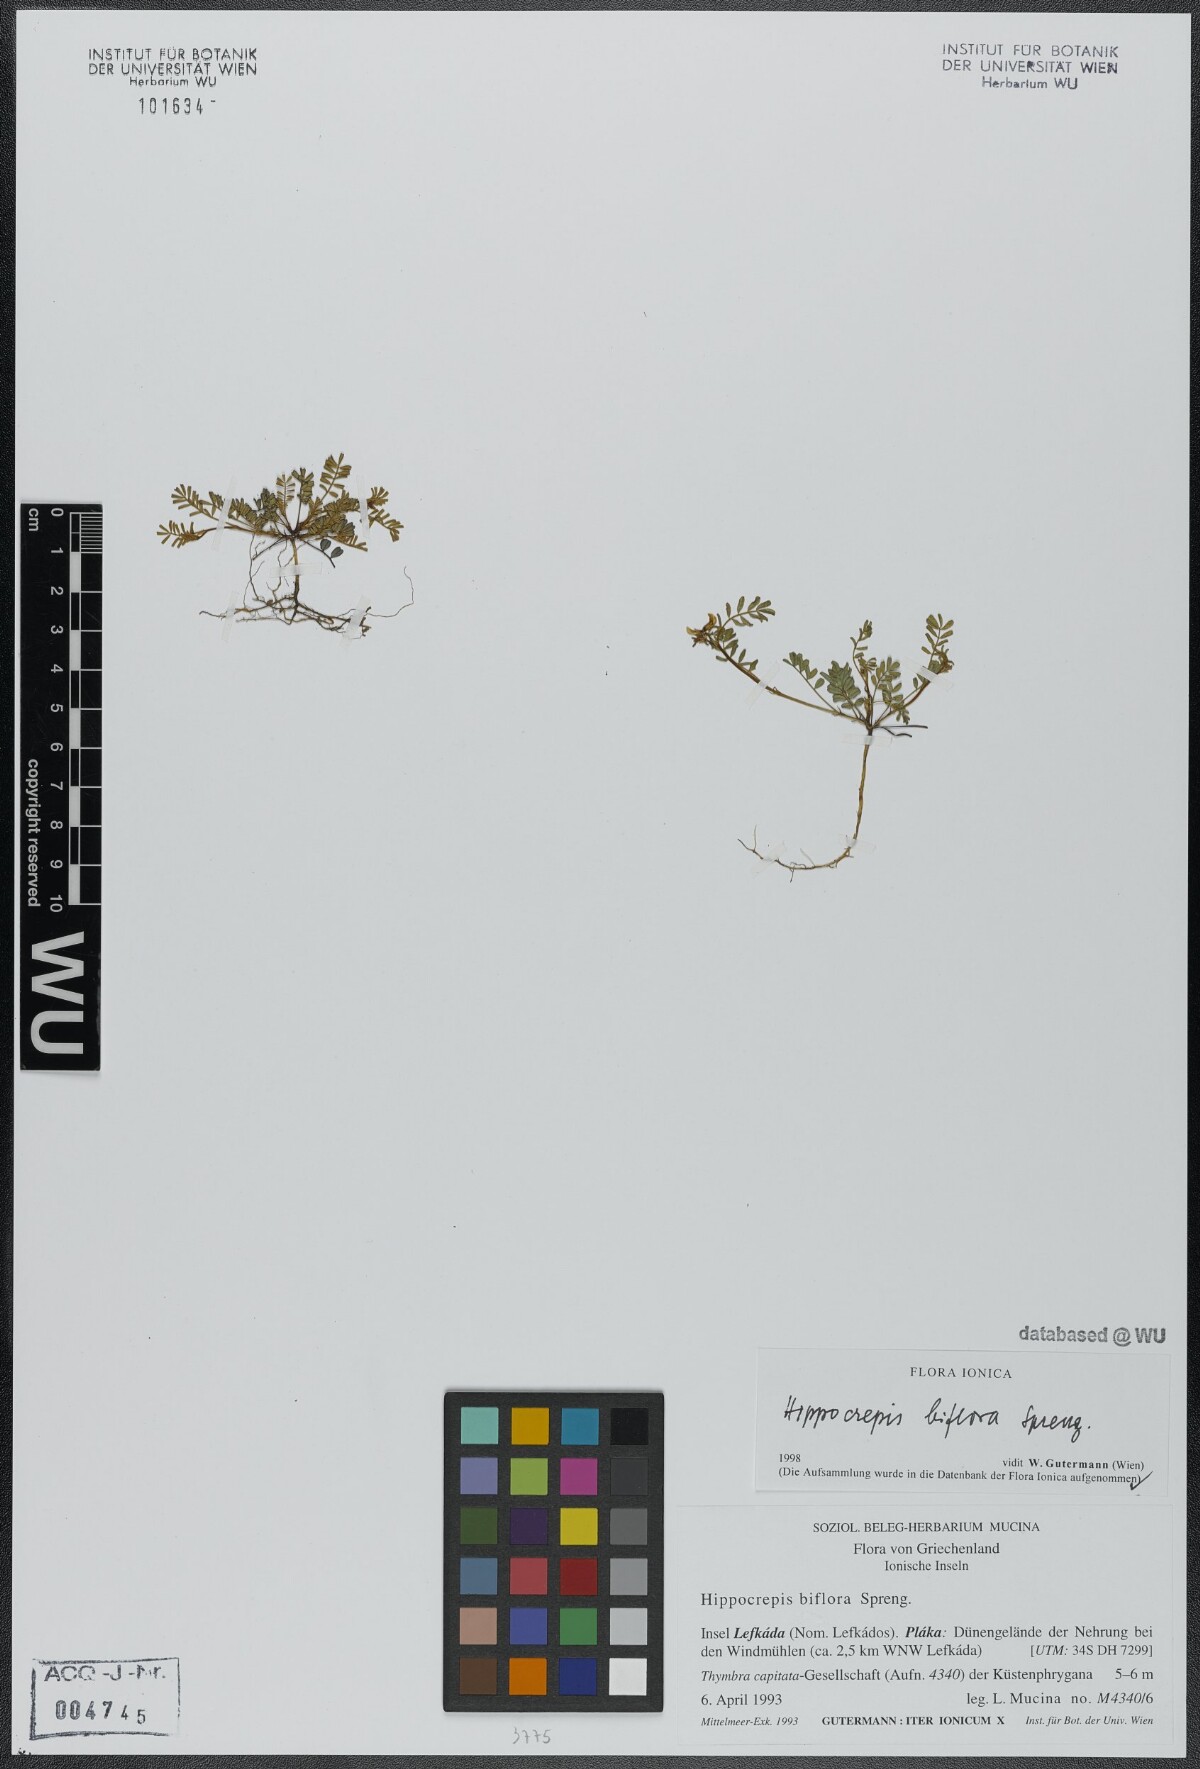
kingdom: Plantae
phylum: Tracheophyta
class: Magnoliopsida
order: Fabales
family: Fabaceae
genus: Hippocrepis
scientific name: Hippocrepis biflora
